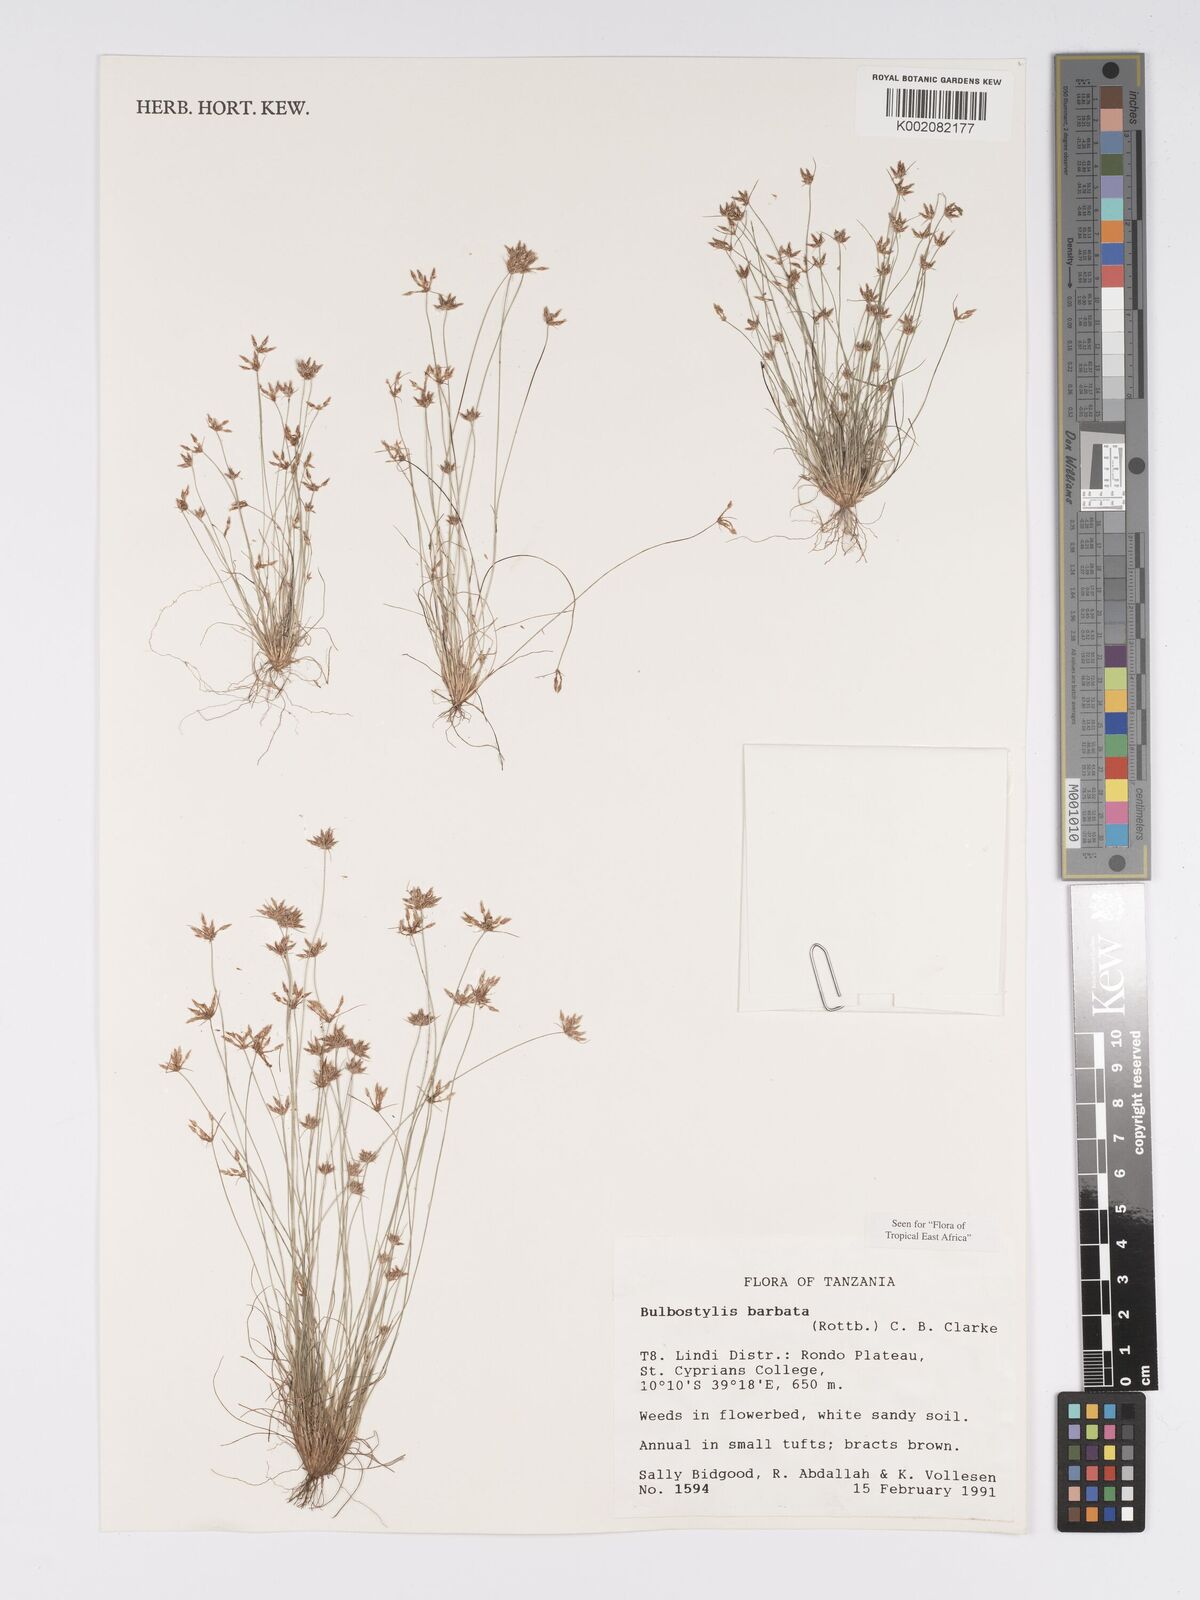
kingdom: Plantae
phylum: Tracheophyta
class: Liliopsida
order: Poales
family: Cyperaceae
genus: Bulbostylis
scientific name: Bulbostylis barbata
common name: Watergrass
